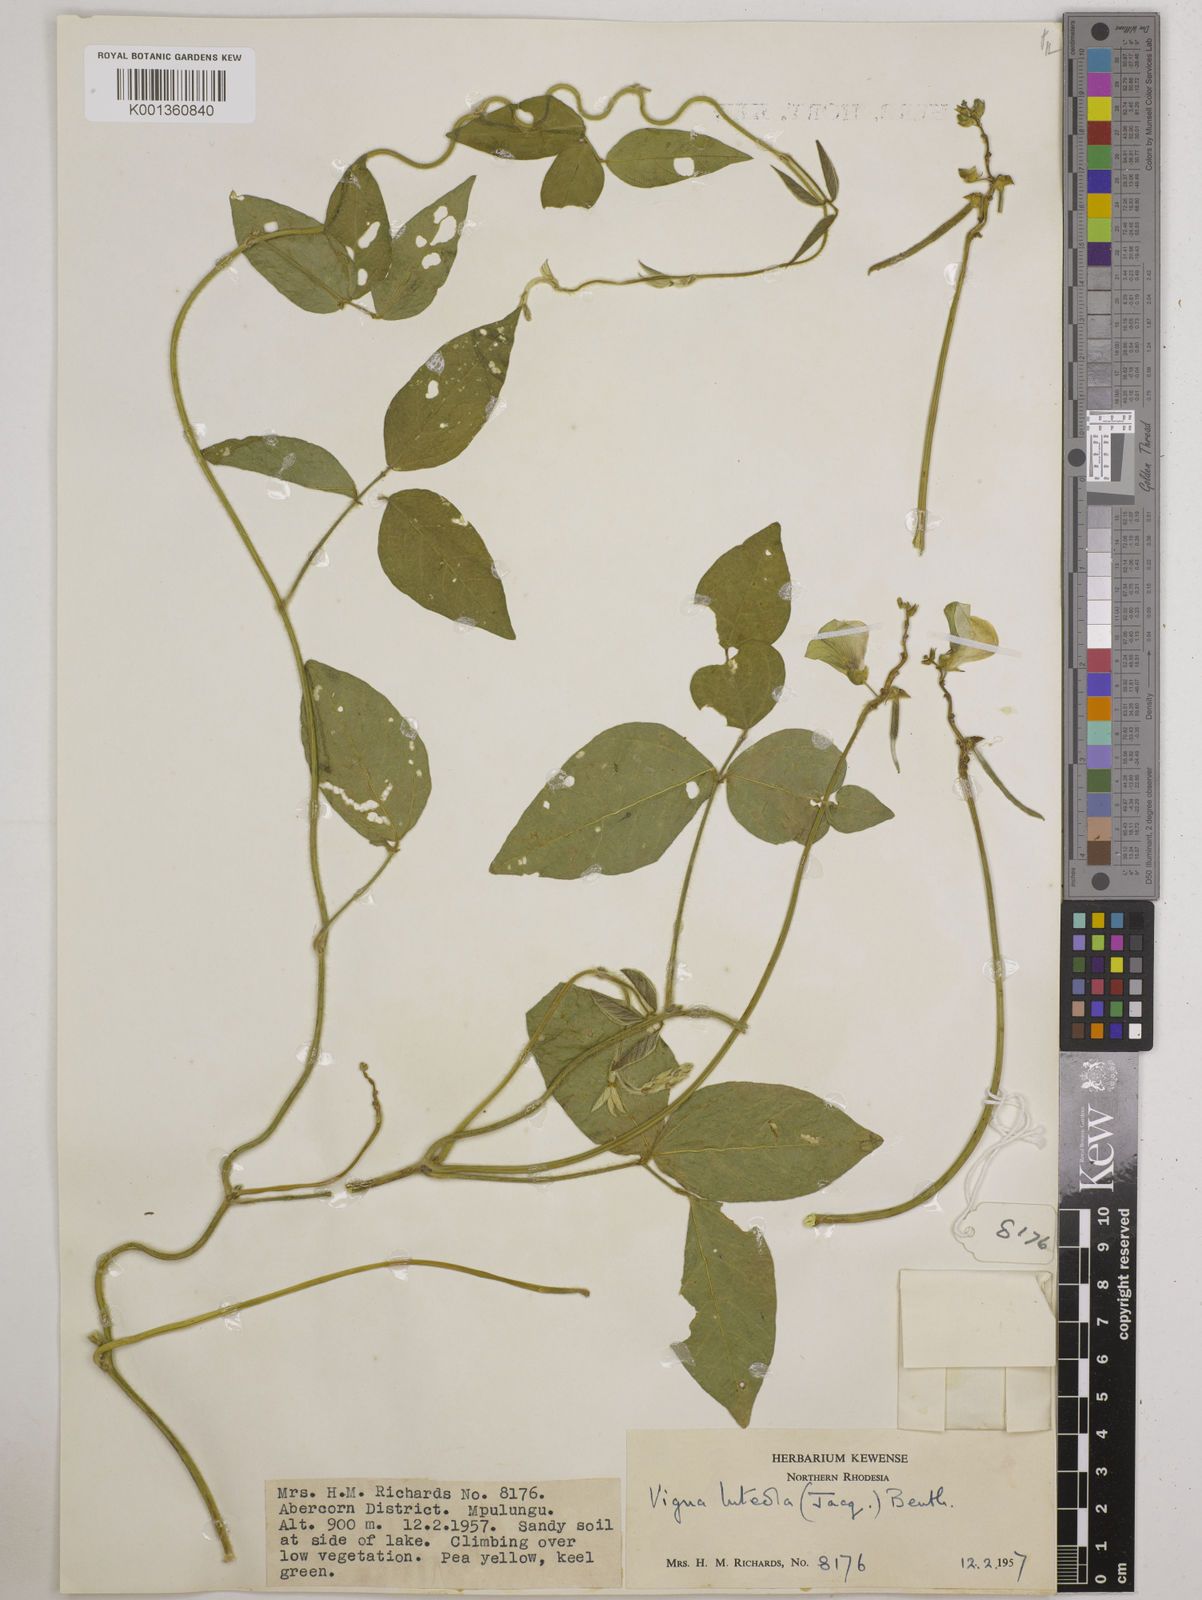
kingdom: Plantae
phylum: Tracheophyta
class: Magnoliopsida
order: Fabales
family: Fabaceae
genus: Vigna
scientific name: Vigna luteola
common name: Hairypod cowpea
